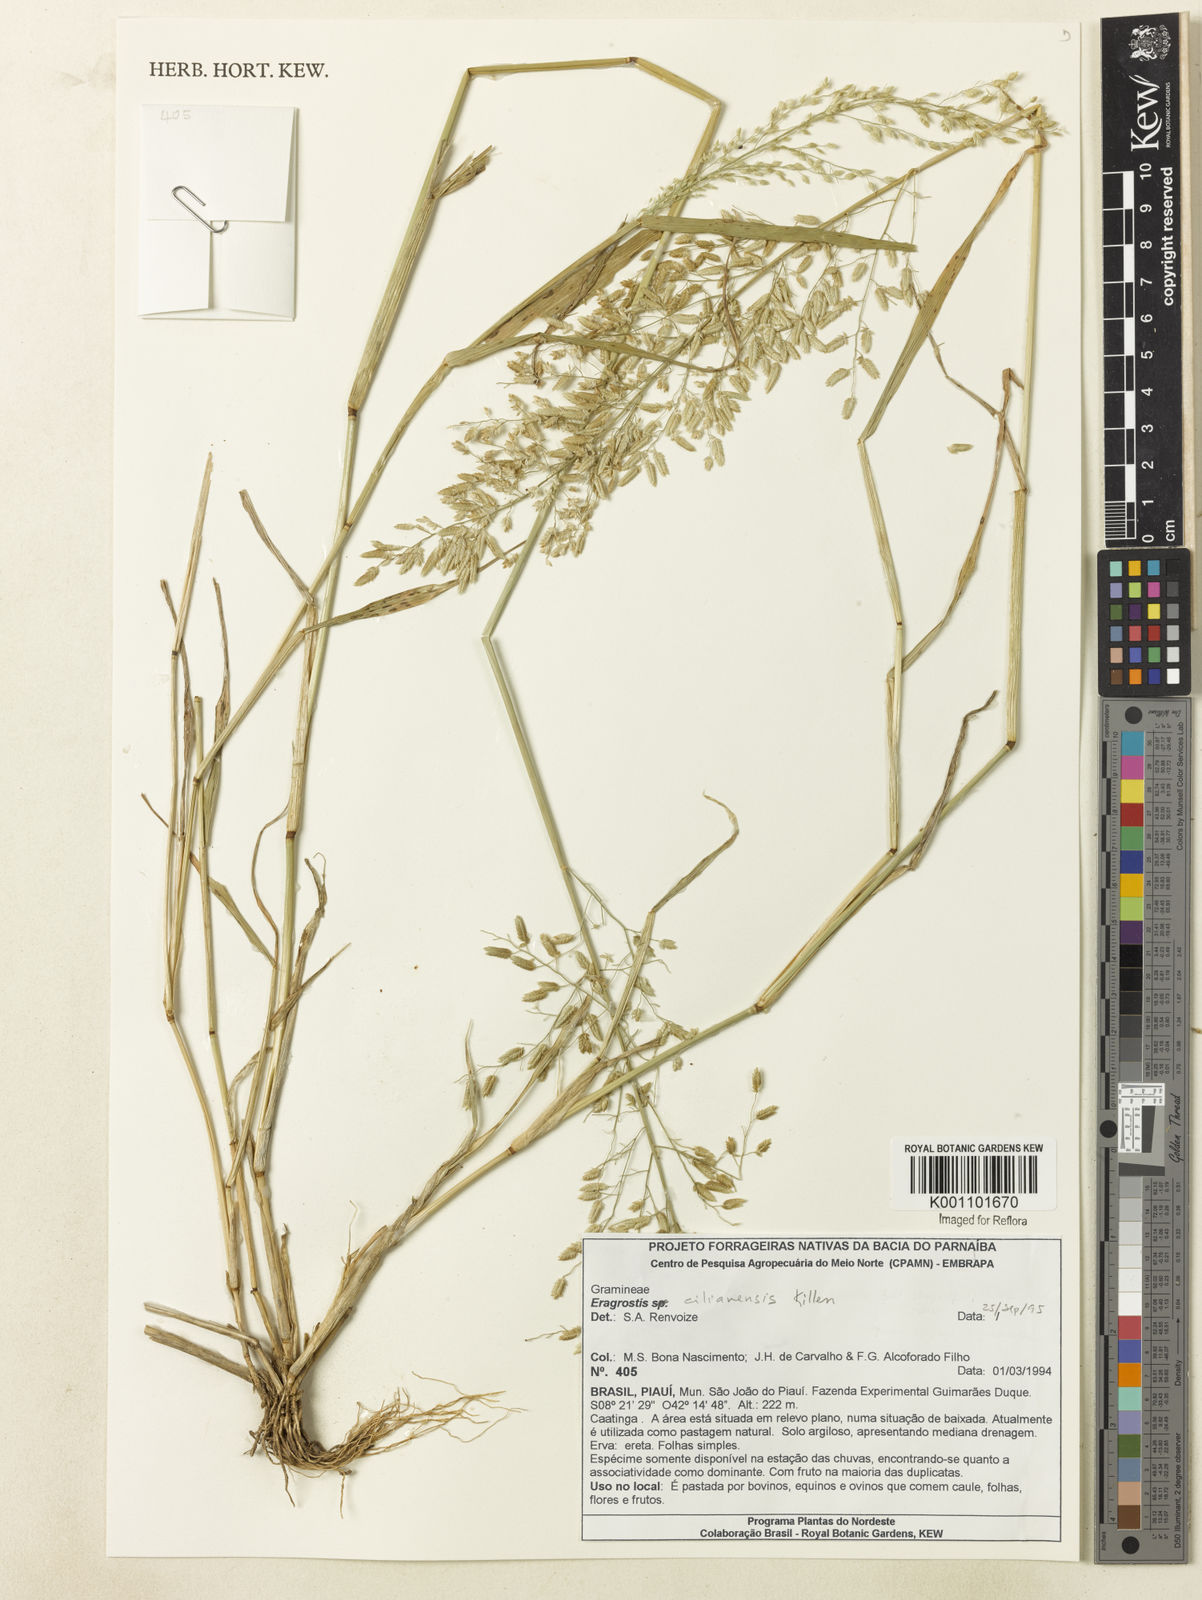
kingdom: Plantae
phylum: Tracheophyta
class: Liliopsida
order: Poales
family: Poaceae
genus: Eragrostis
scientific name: Eragrostis cilianensis
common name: Stinkgrass
